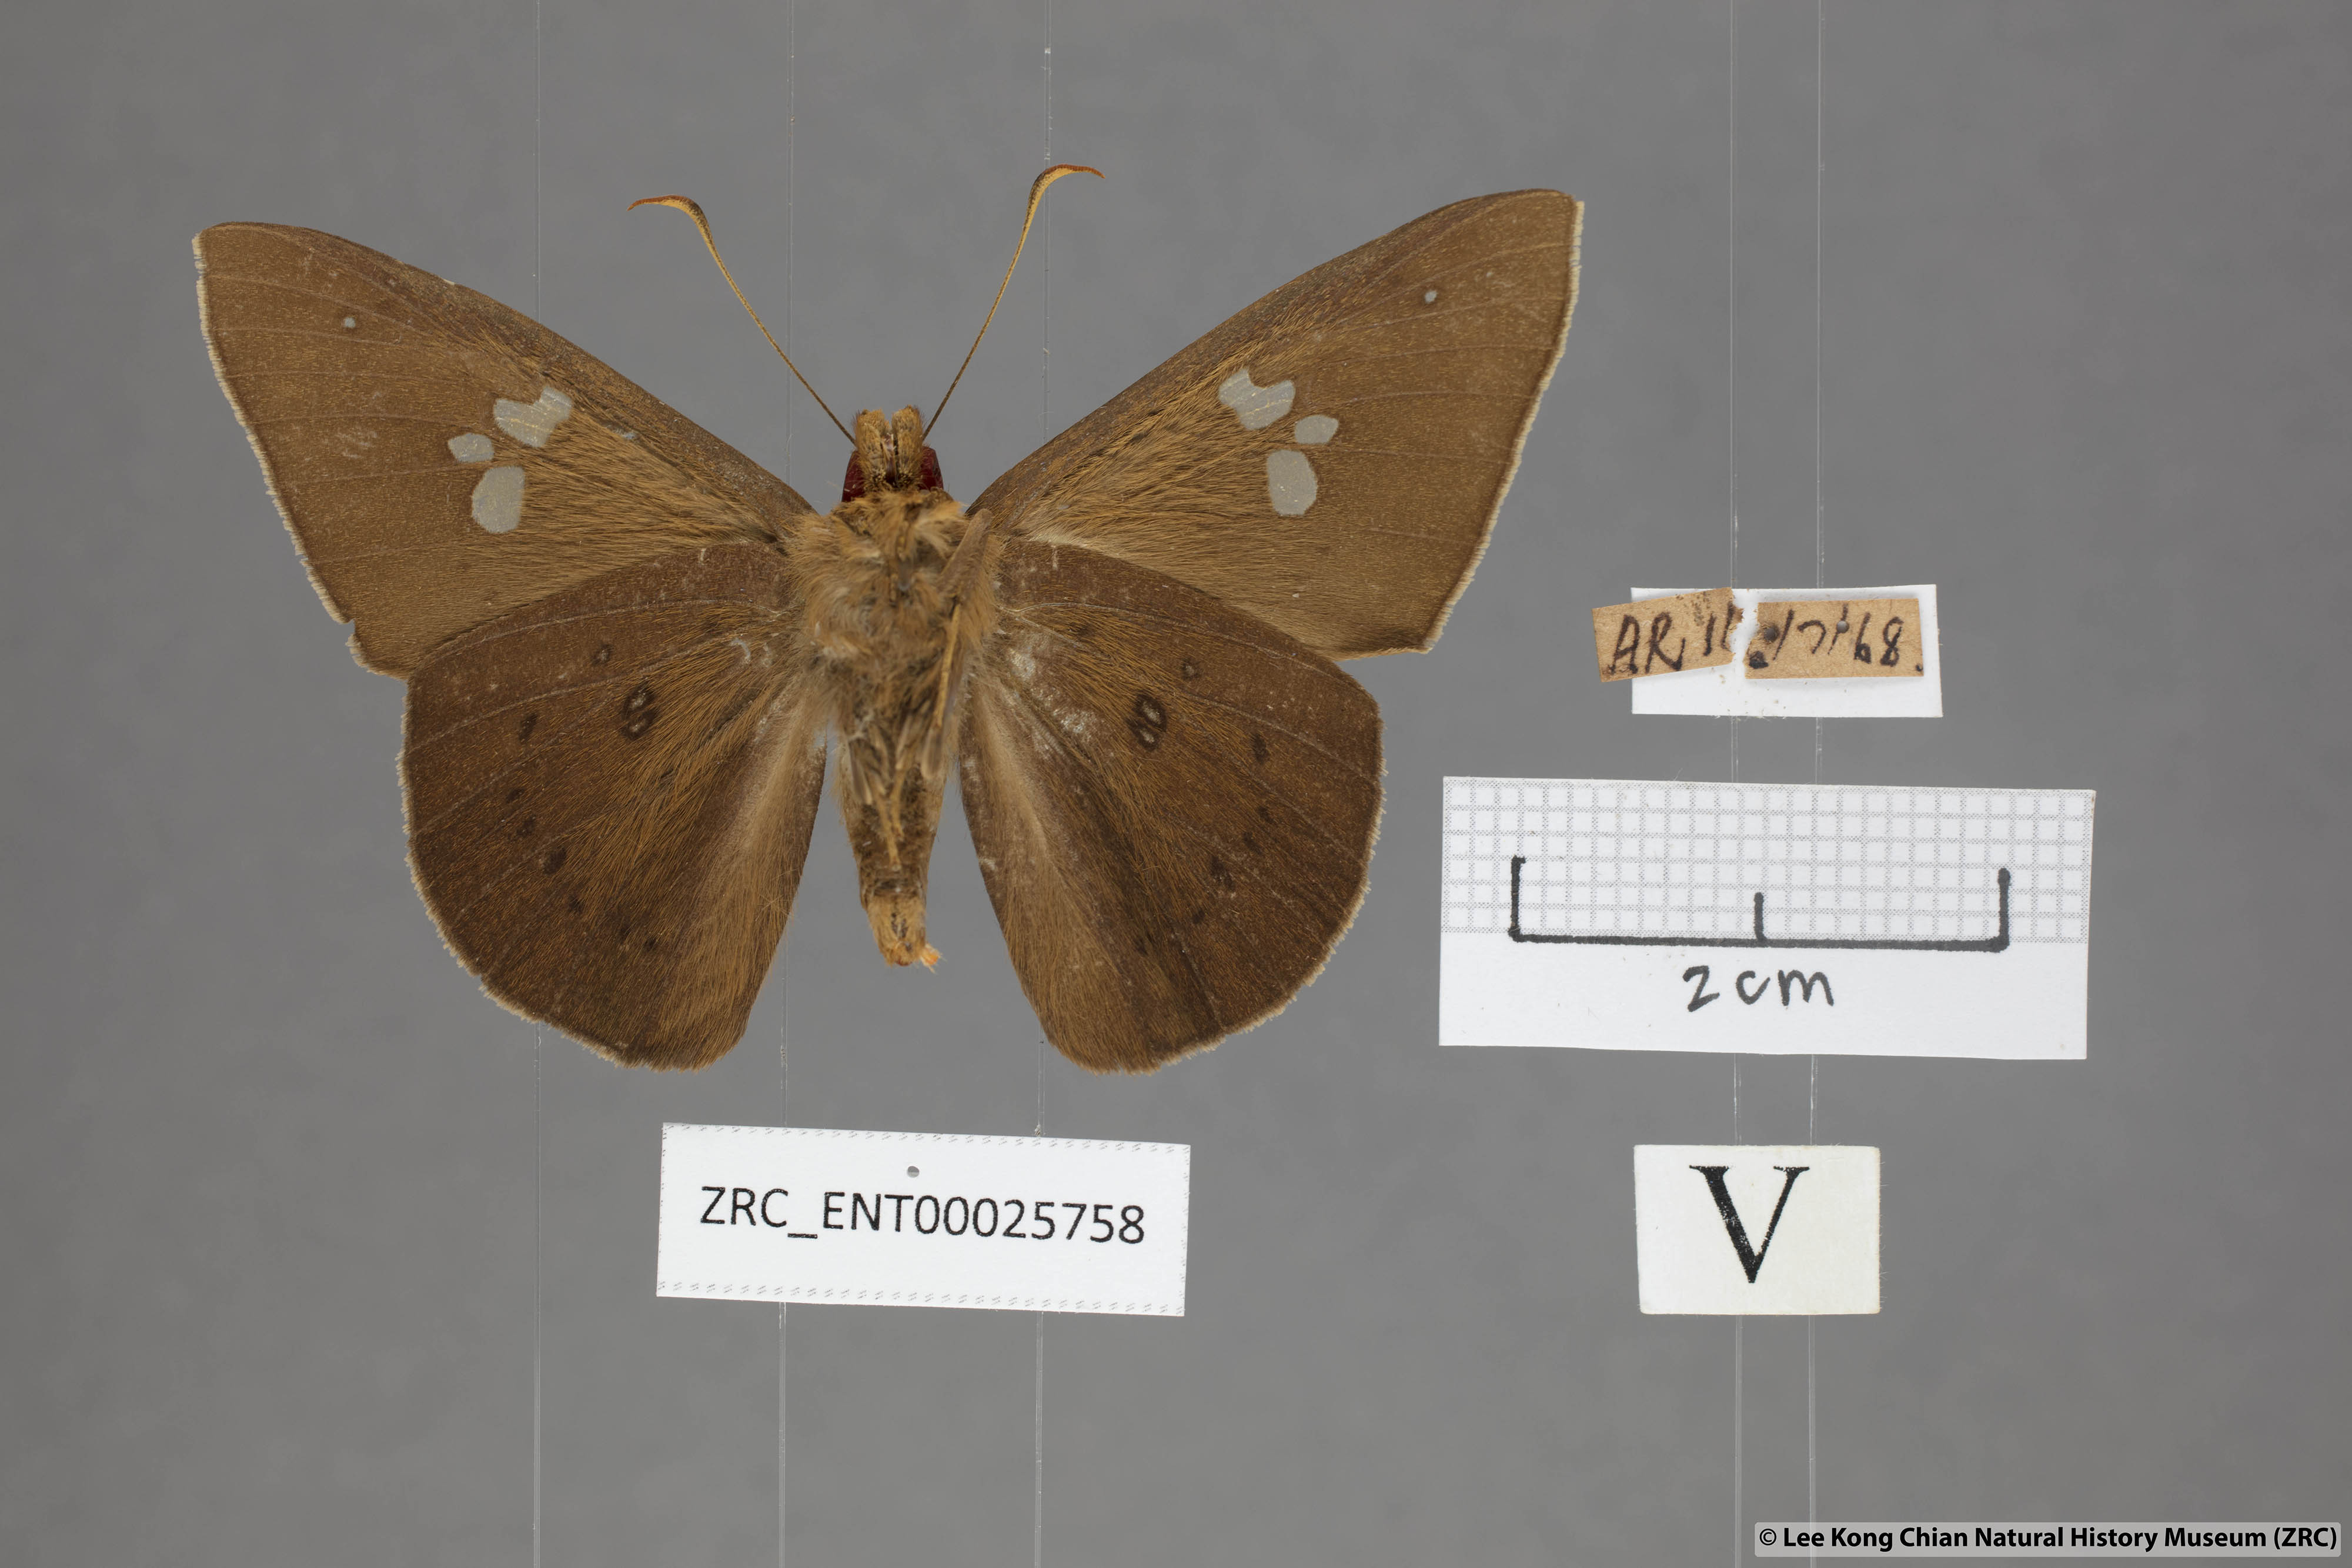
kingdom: Animalia
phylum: Arthropoda
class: Insecta
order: Lepidoptera
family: Hesperiidae
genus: Capila
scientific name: Capila phanaeus
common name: Fulvous dawnfly
